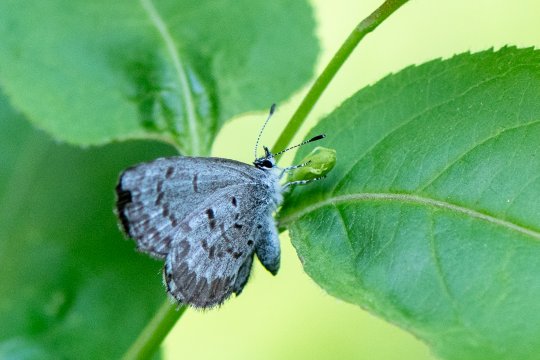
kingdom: Animalia
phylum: Arthropoda
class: Insecta
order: Lepidoptera
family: Lycaenidae
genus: Celastrina
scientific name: Celastrina lucia
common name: Northern Spring Azure
